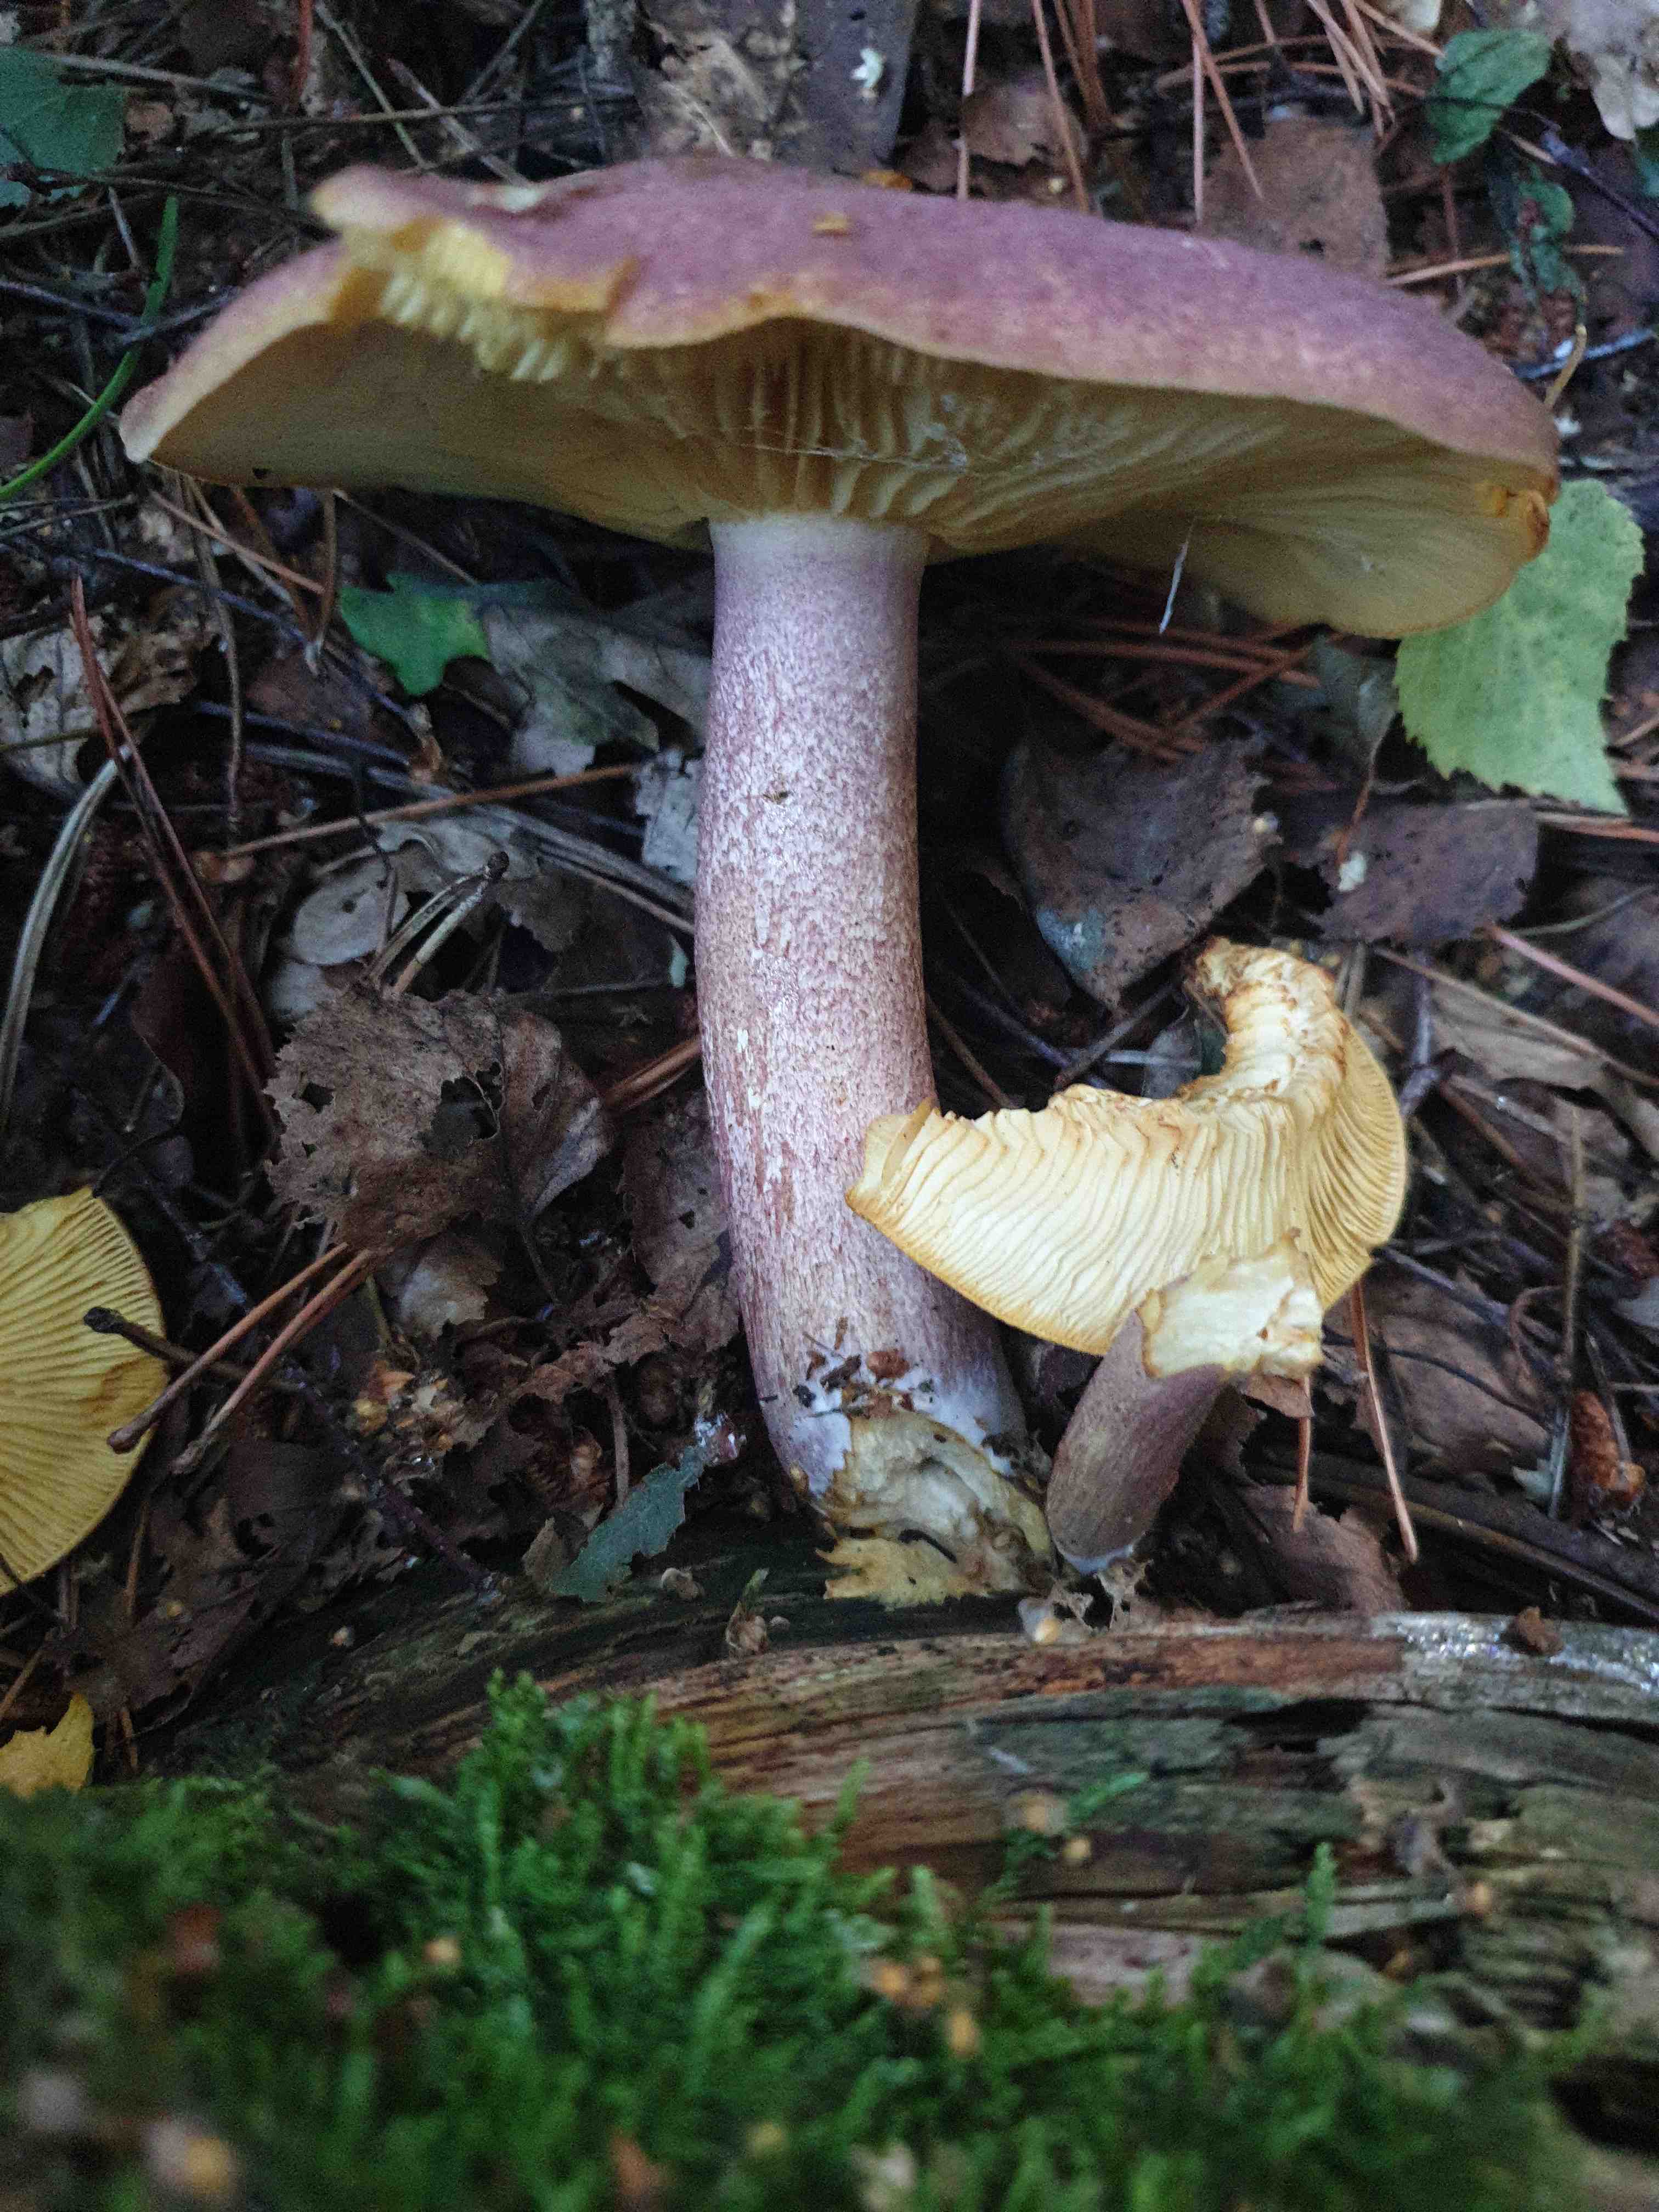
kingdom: Fungi
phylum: Basidiomycota
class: Agaricomycetes
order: Agaricales
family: Tricholomataceae
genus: Tricholomopsis
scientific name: Tricholomopsis rutilans
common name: purpur-væbnerhat
